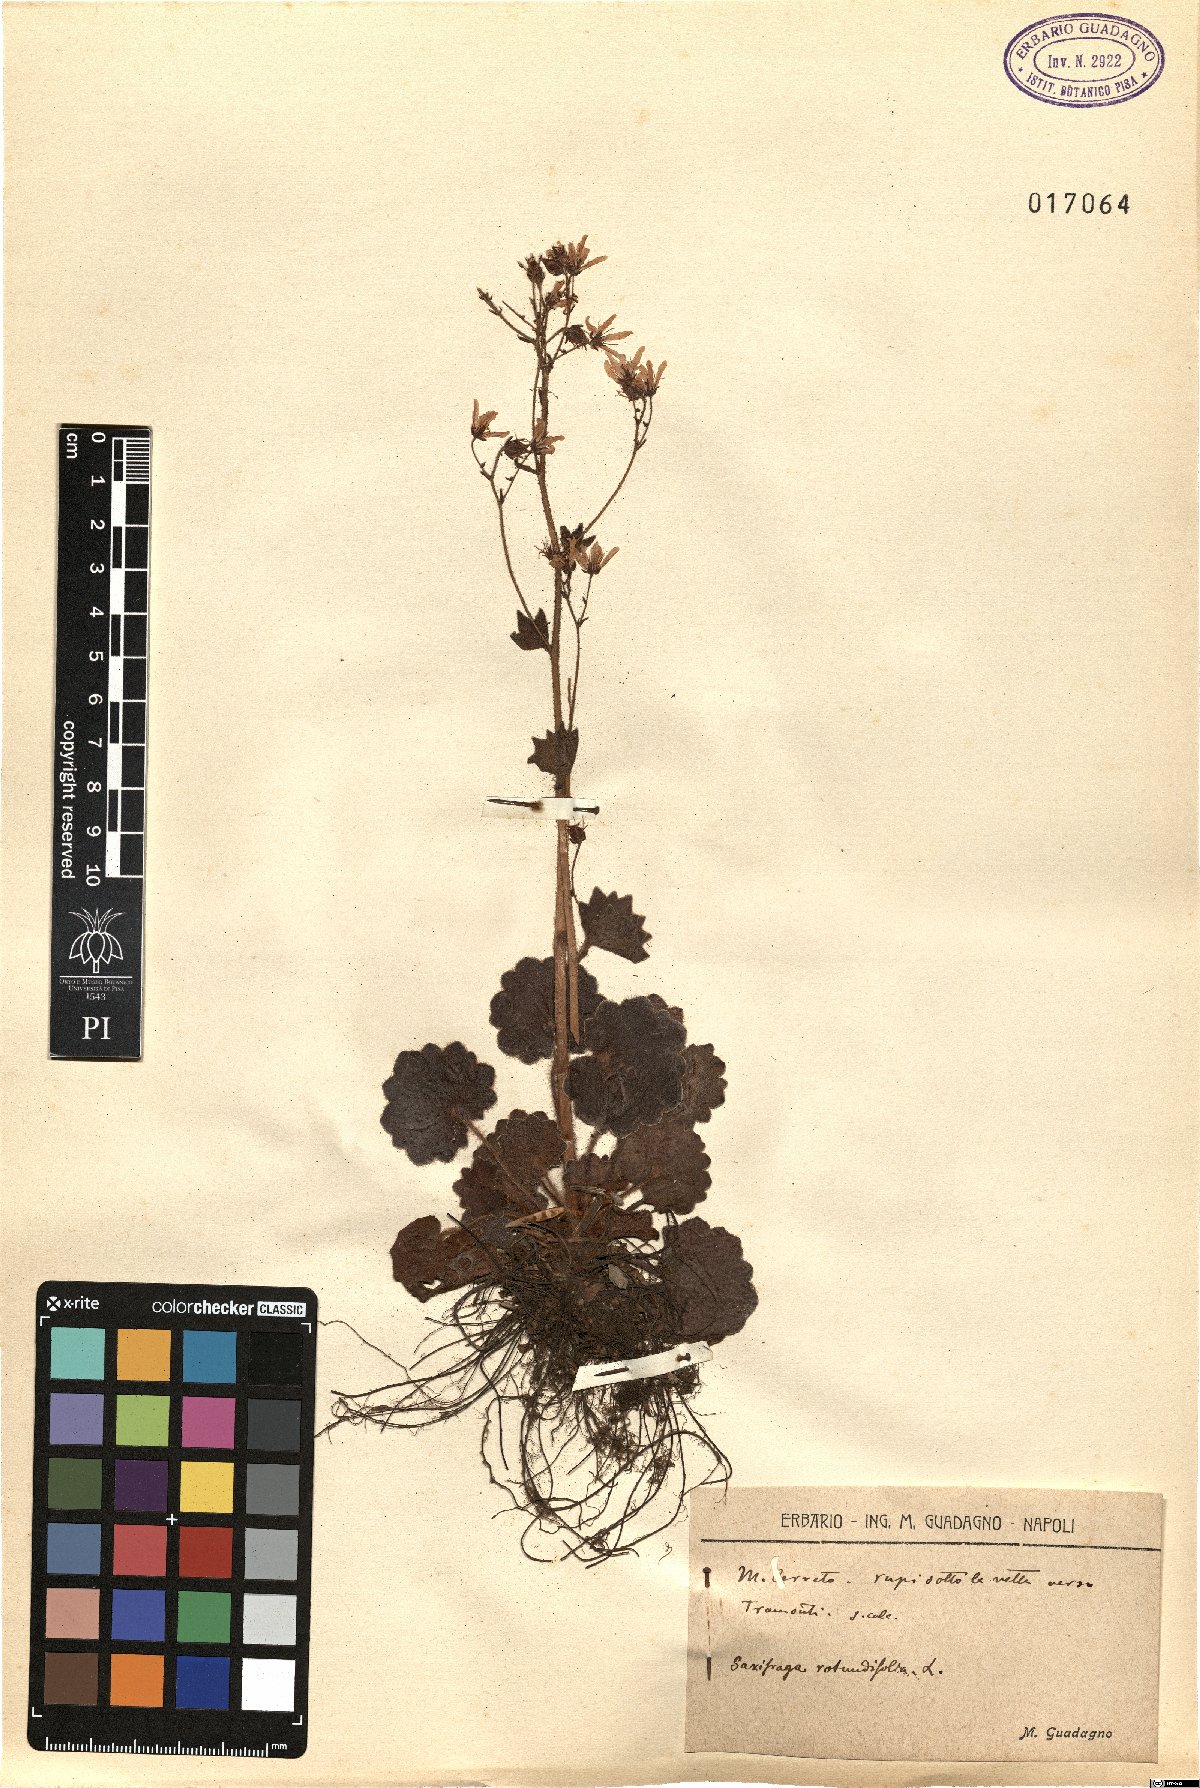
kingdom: Plantae
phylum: Tracheophyta
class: Magnoliopsida
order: Saxifragales
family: Saxifragaceae
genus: Saxifraga
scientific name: Saxifraga rotundifolia
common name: Round-leaved saxifrage
